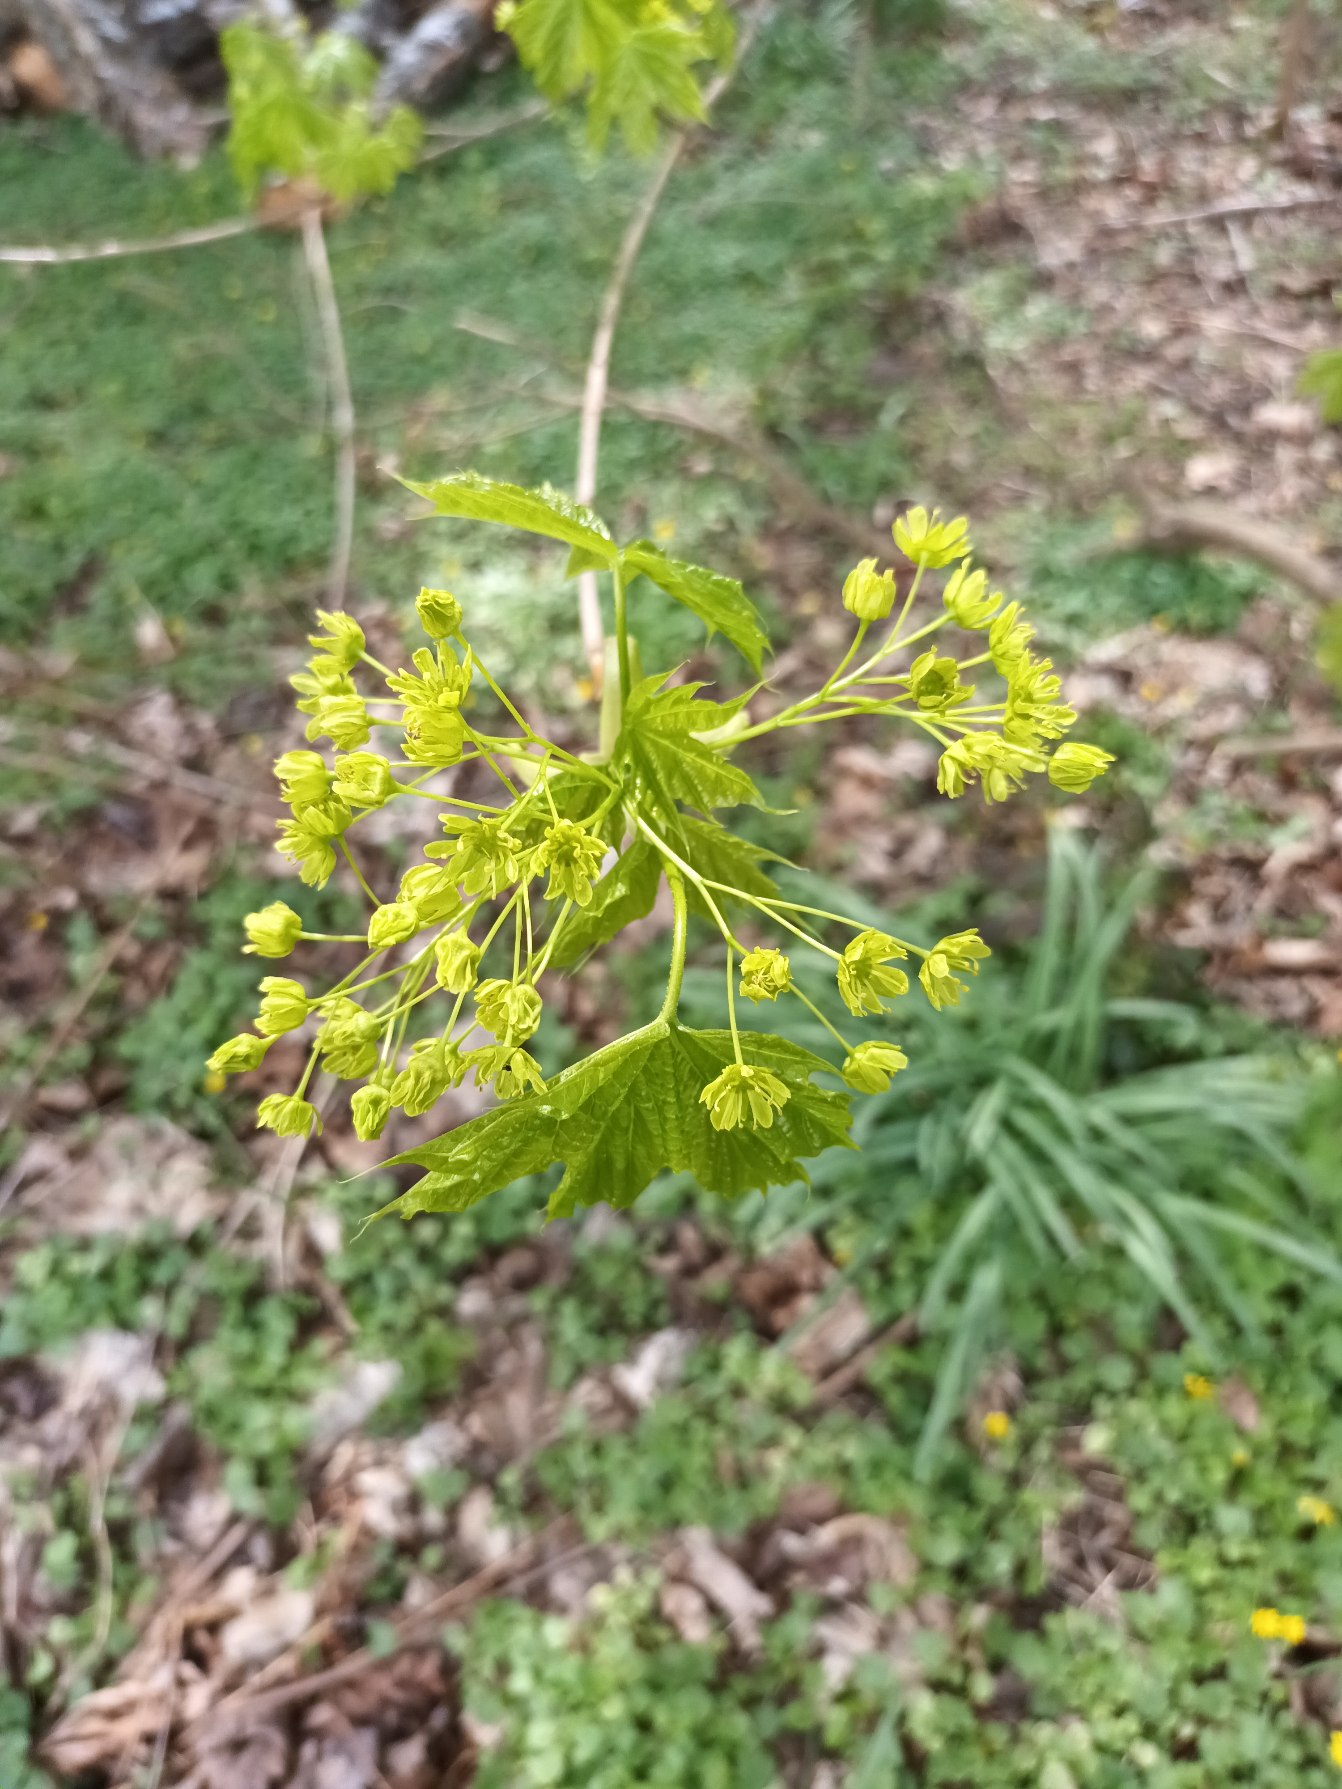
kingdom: Plantae
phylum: Tracheophyta
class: Magnoliopsida
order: Sapindales
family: Sapindaceae
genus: Acer
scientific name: Acer platanoides
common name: Spids-løn
